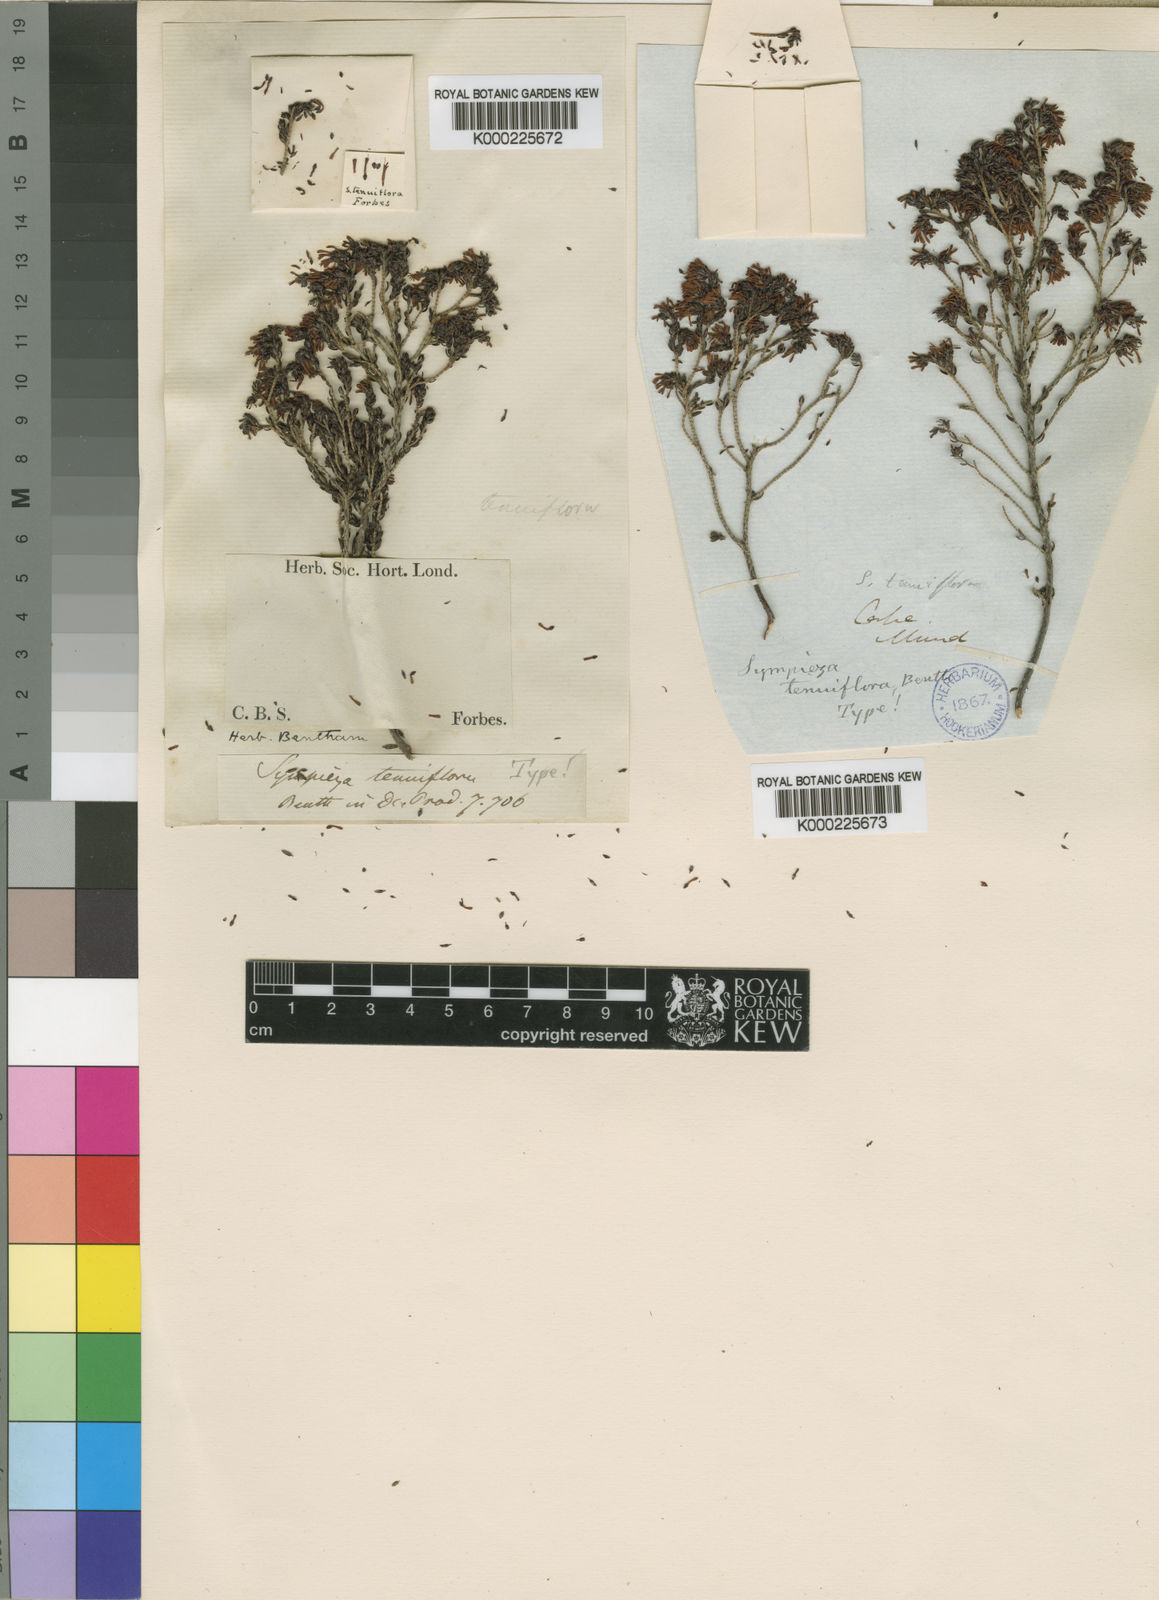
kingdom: Plantae
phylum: Tracheophyta
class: Magnoliopsida
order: Ericales
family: Ericaceae
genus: Erica
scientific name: Erica labialis
